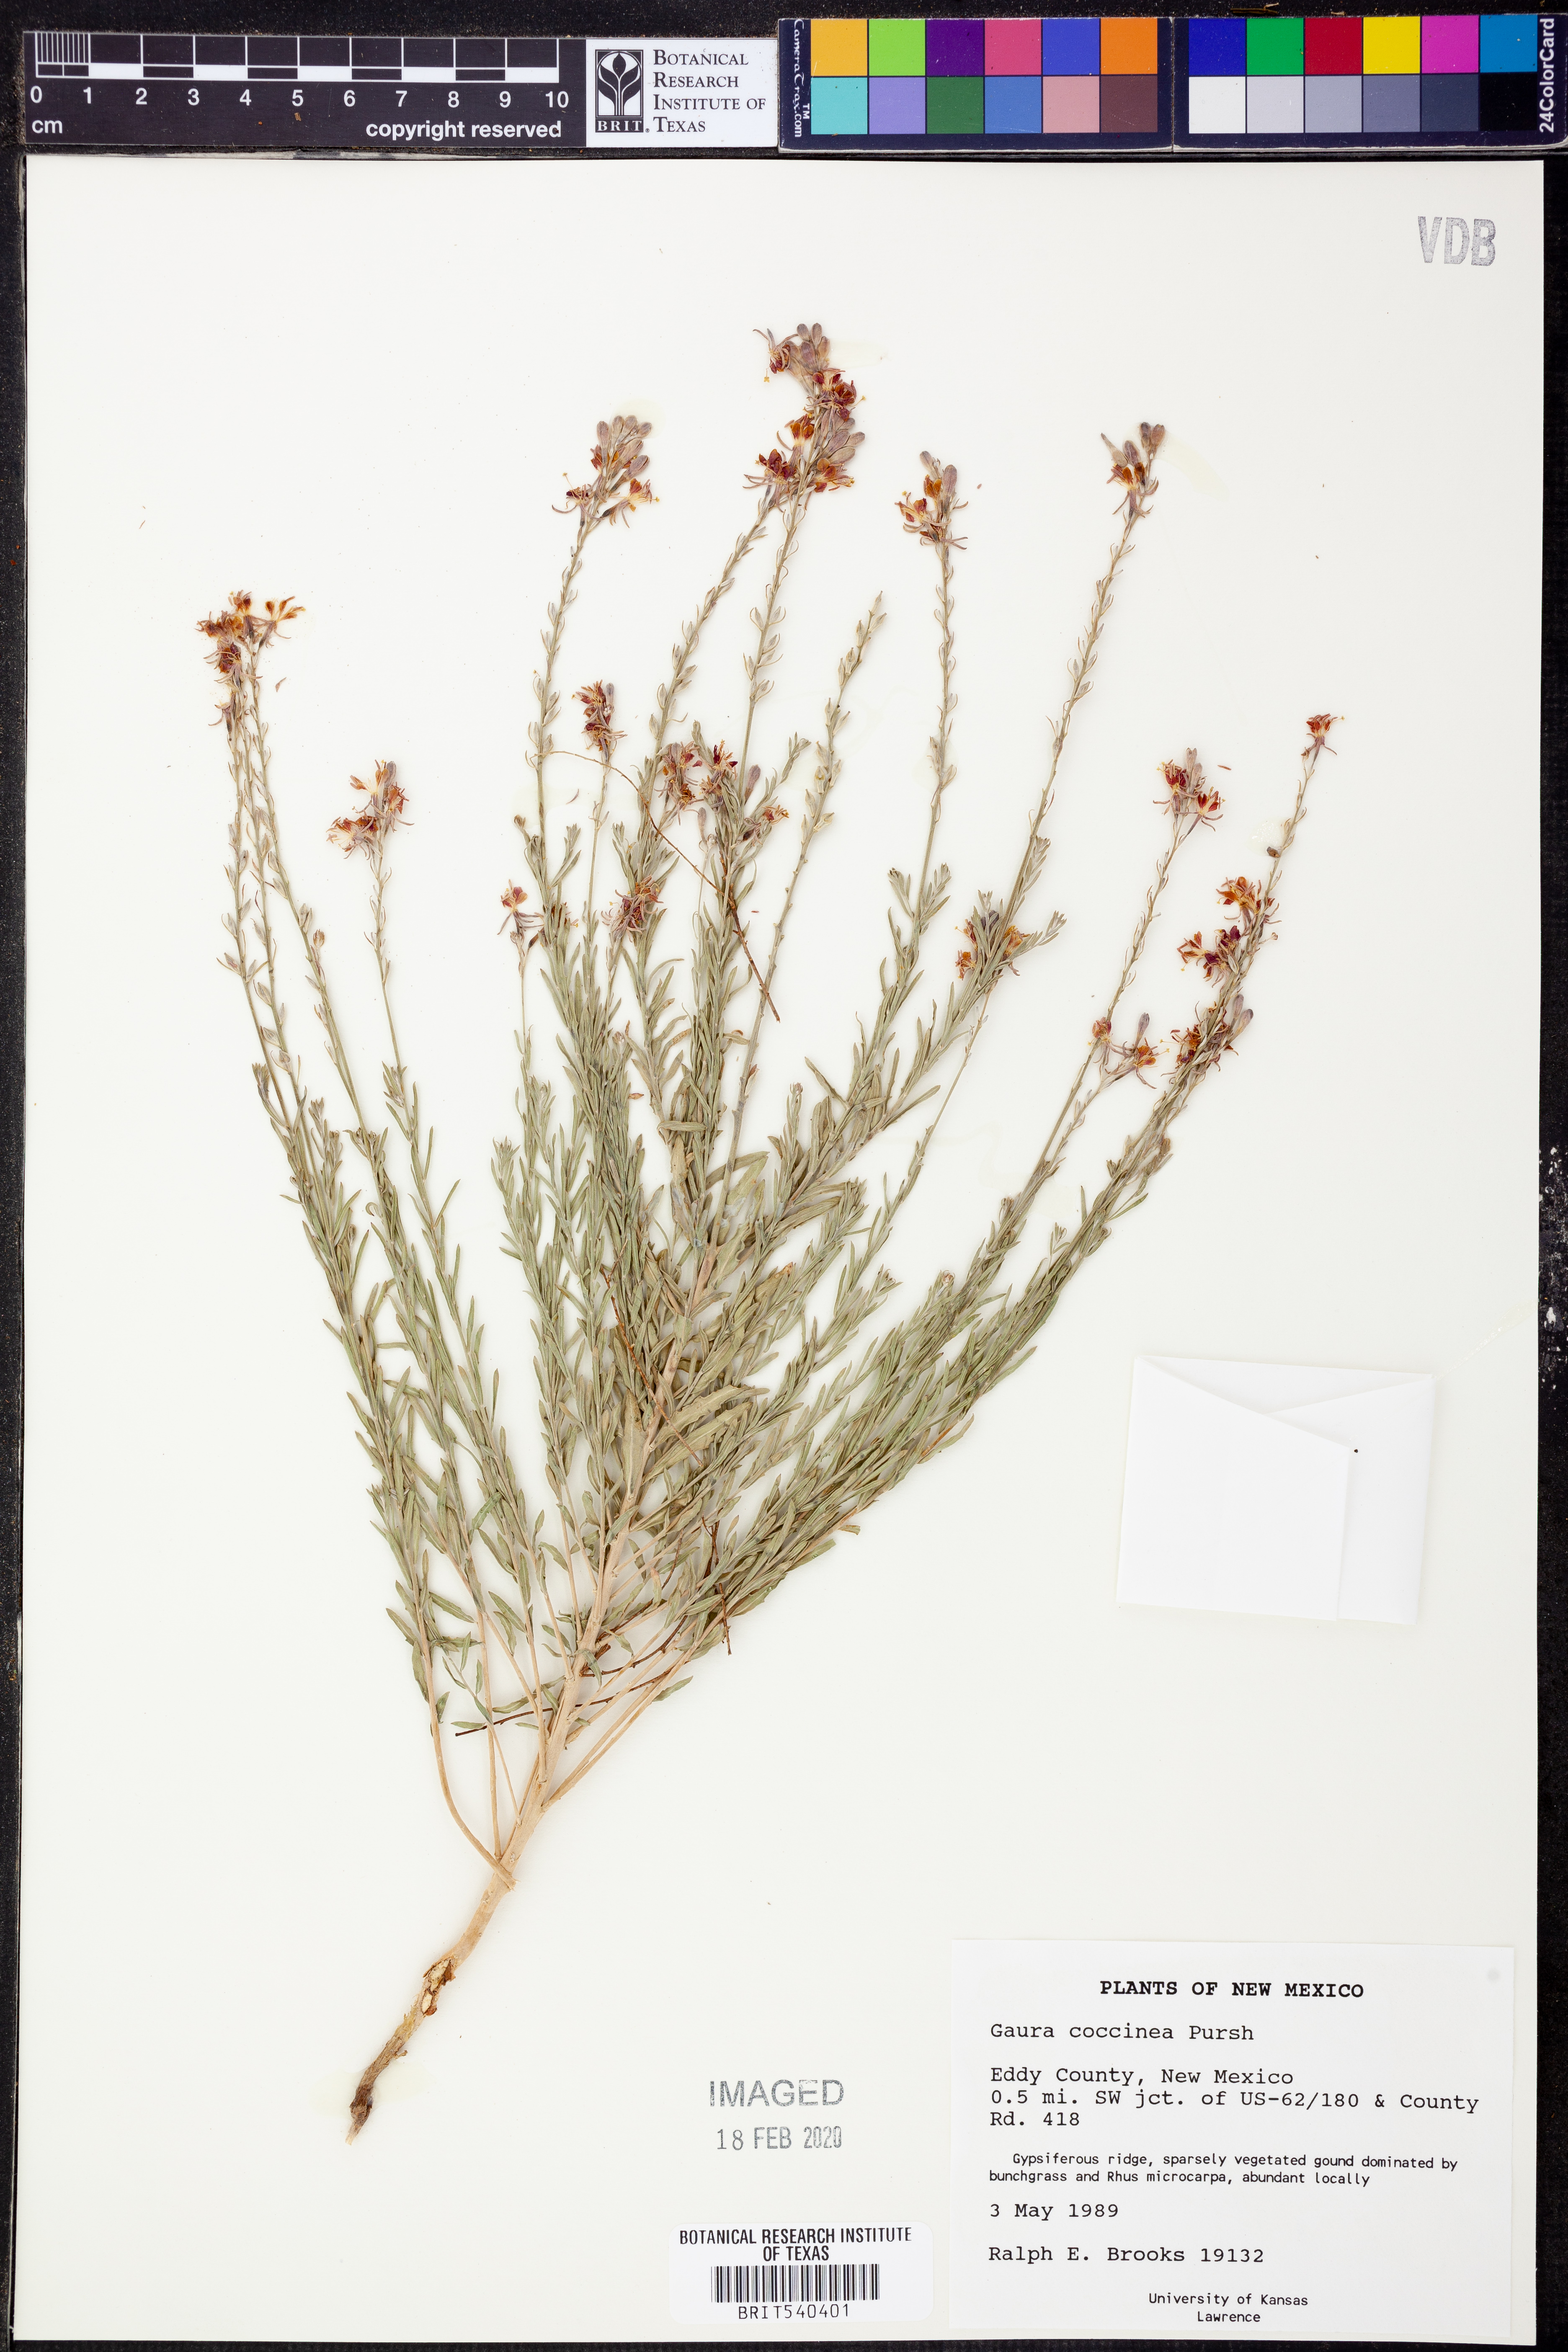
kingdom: Plantae
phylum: Tracheophyta
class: Magnoliopsida
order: Myrtales
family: Onagraceae
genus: Oenothera
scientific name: Oenothera suffrutescens
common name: Scarlet beeblossom
